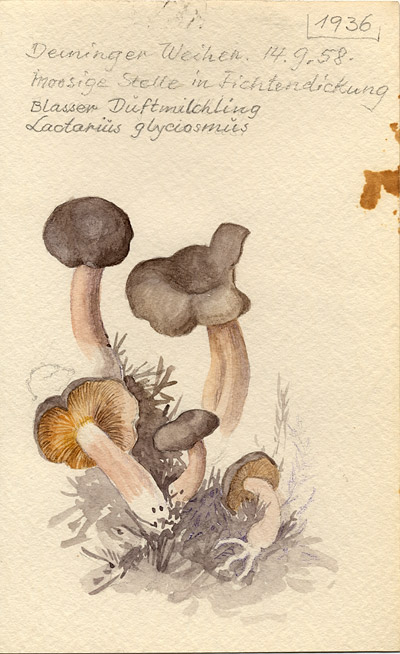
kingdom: Fungi
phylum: Basidiomycota
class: Agaricomycetes
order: Russulales
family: Russulaceae
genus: Lactarius
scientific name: Lactarius glyciosmus
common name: Coconut milkcap
